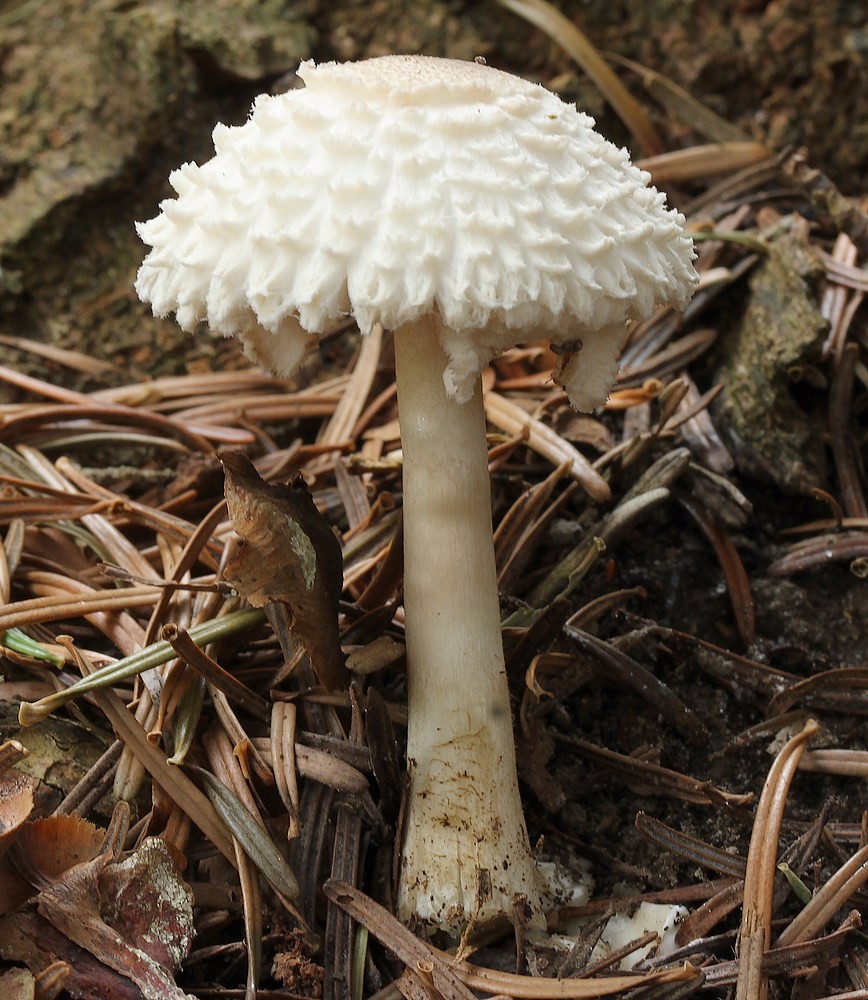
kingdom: Fungi
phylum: Basidiomycota
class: Agaricomycetes
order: Agaricales
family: Agaricaceae
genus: Leucoagaricus
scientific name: Leucoagaricus nympharum
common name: gran-silkehat
